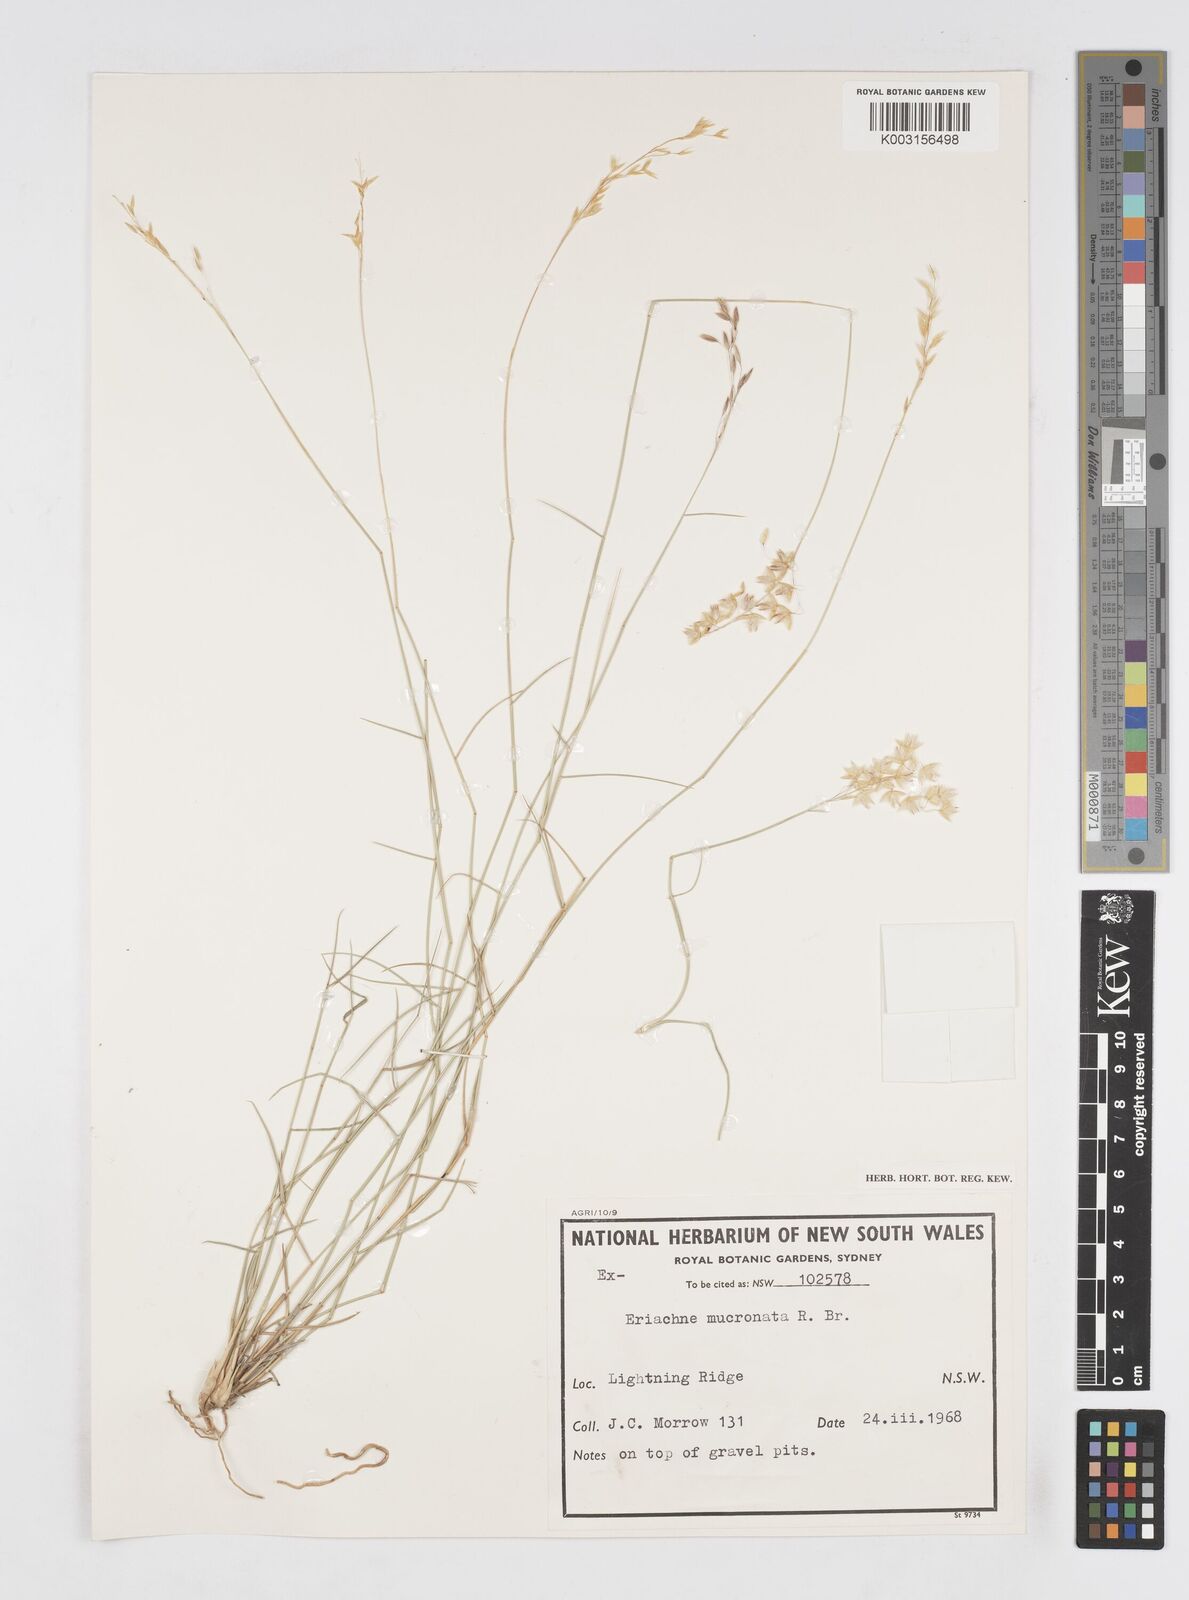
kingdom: Plantae
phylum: Tracheophyta
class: Liliopsida
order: Poales
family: Poaceae
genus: Eriachne
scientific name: Eriachne mucronata
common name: Mountain wanderrie grass
